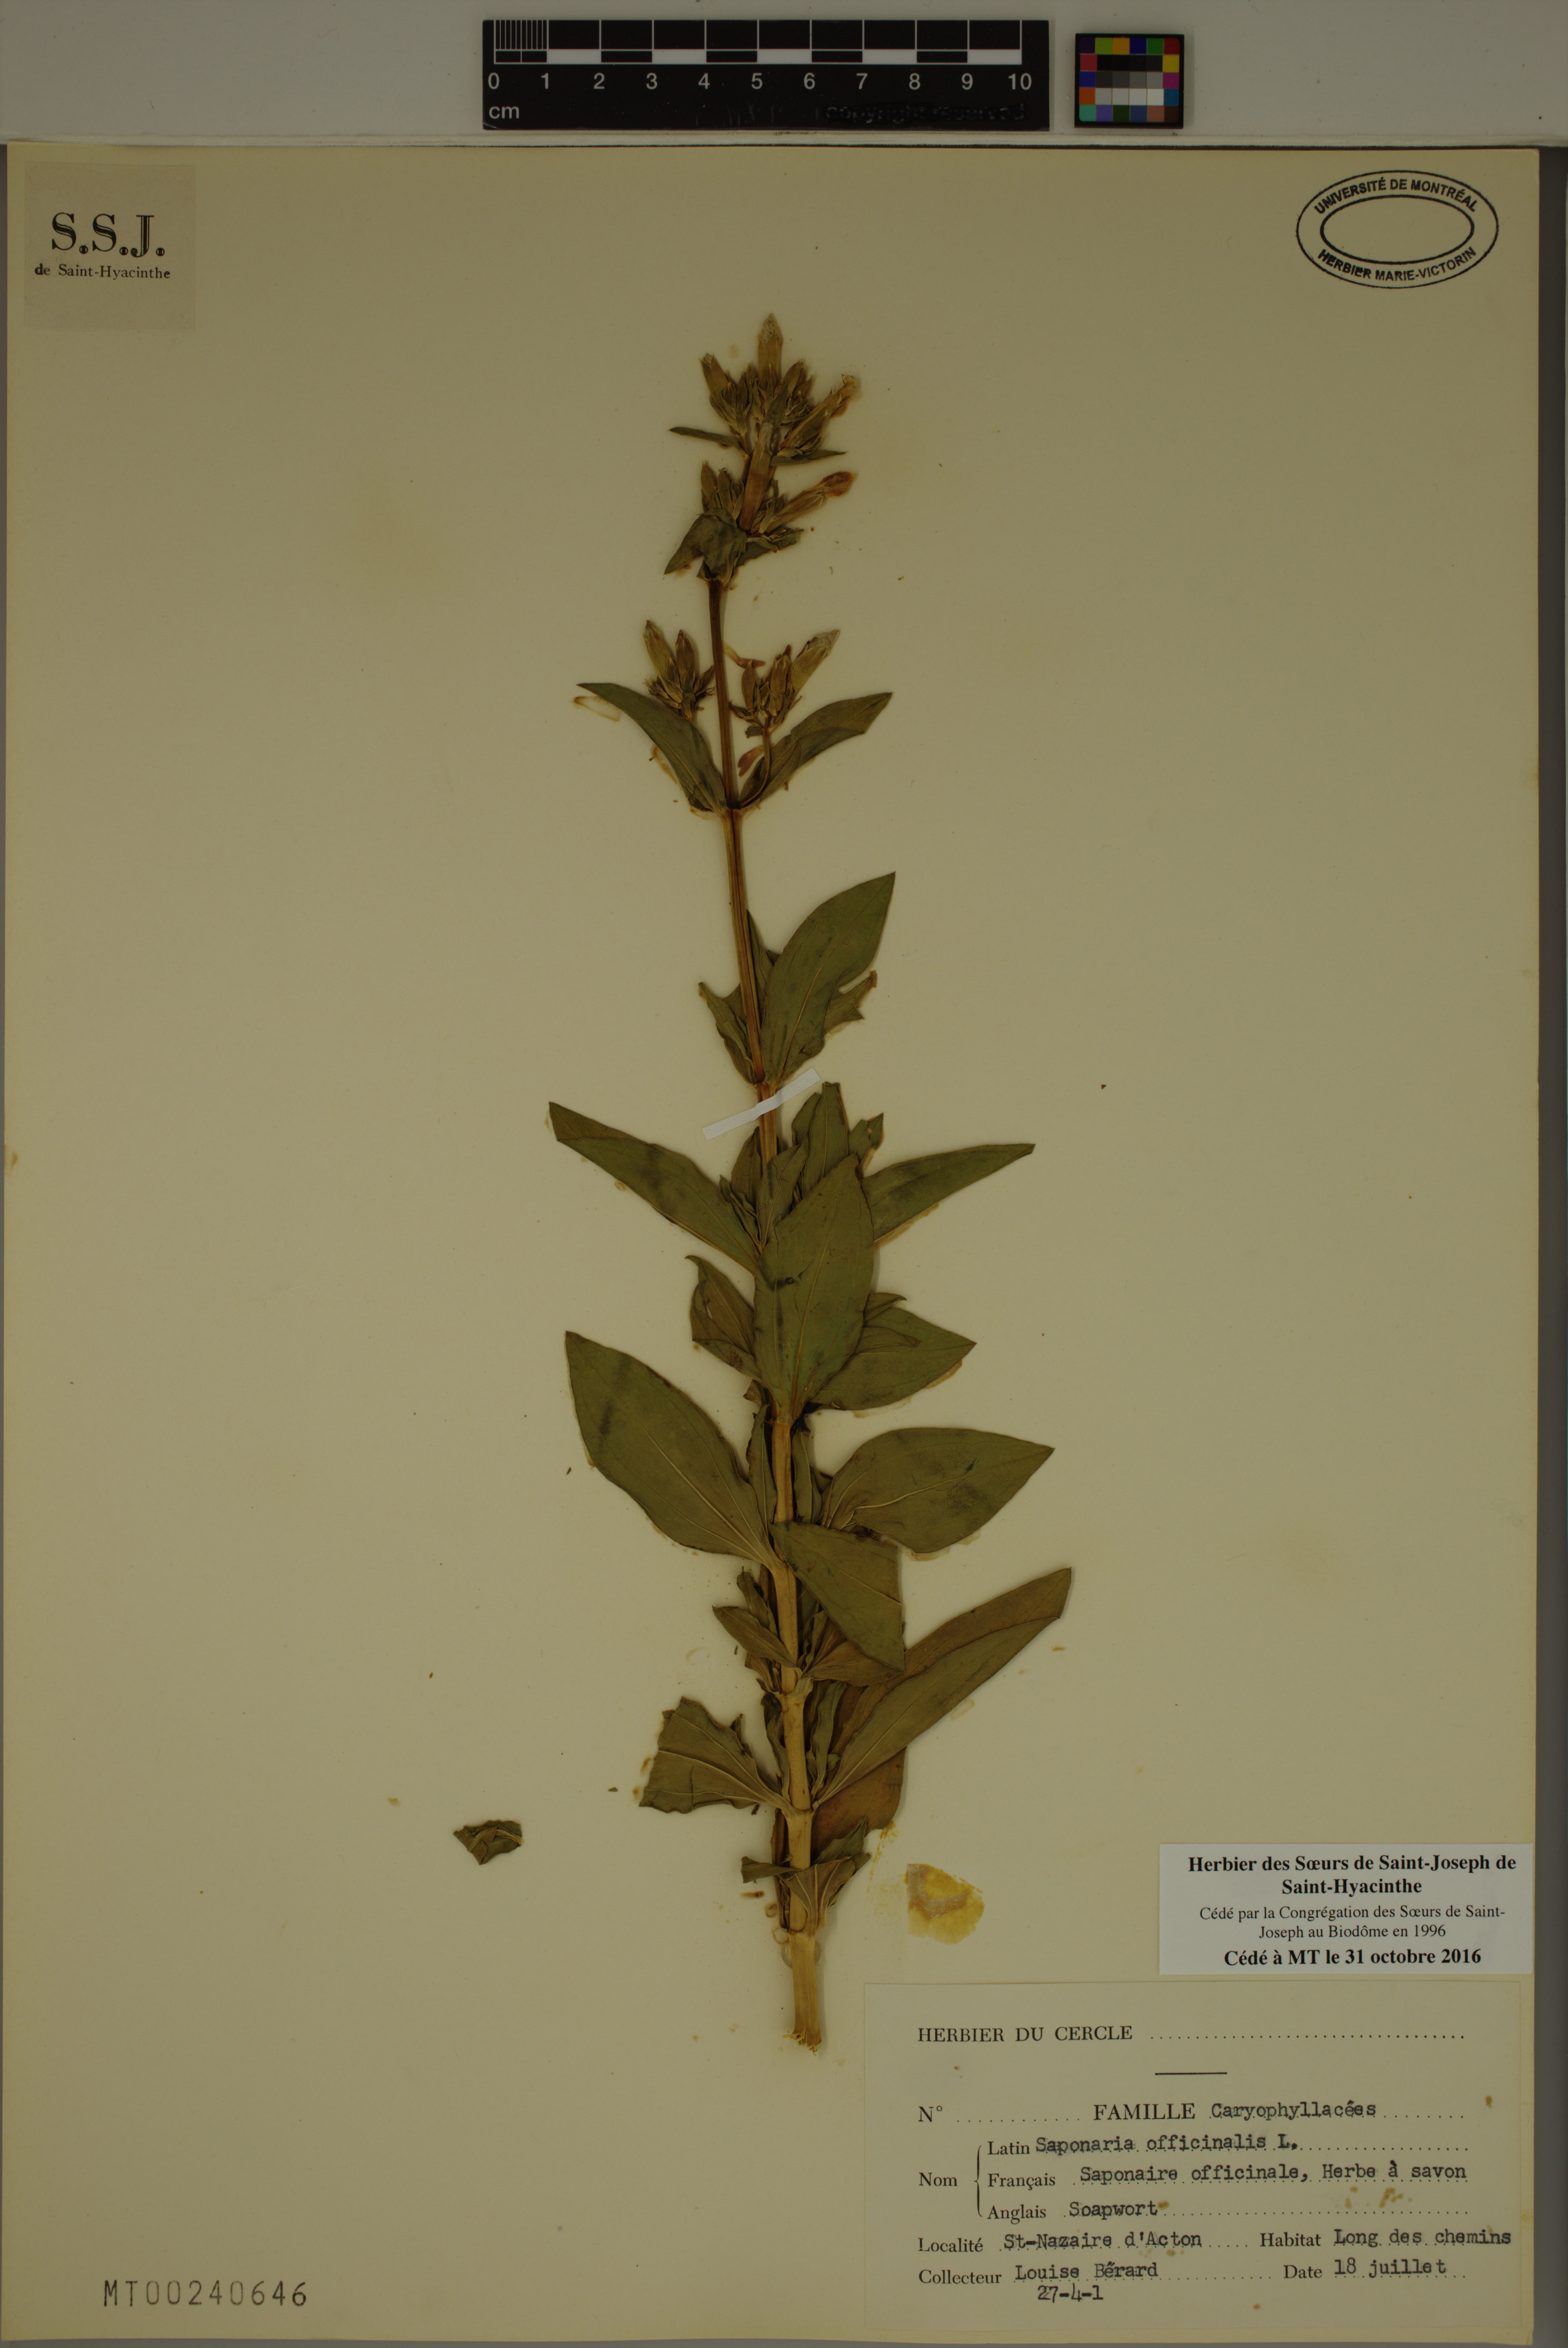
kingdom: Plantae
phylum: Tracheophyta
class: Magnoliopsida
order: Caryophyllales
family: Caryophyllaceae
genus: Saponaria
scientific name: Saponaria officinalis
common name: Soapwort
